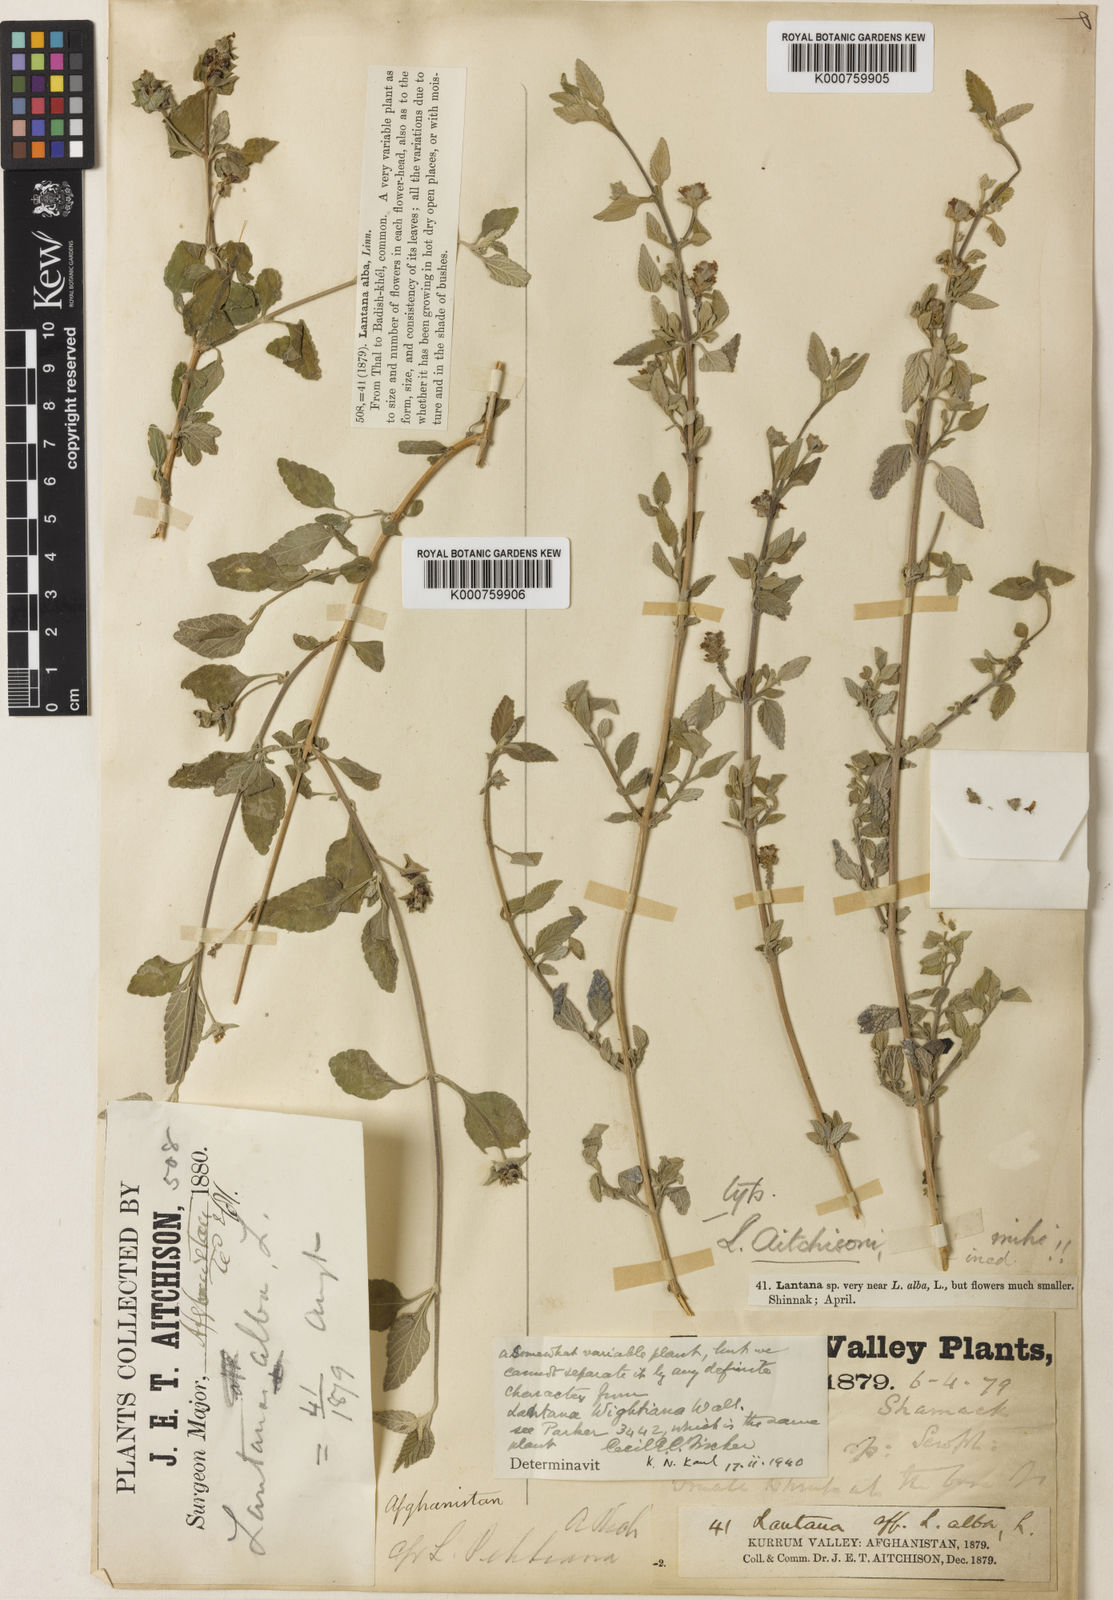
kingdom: Plantae
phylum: Tracheophyta
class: Magnoliopsida
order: Lamiales
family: Verbenaceae
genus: Lantana
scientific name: Lantana
